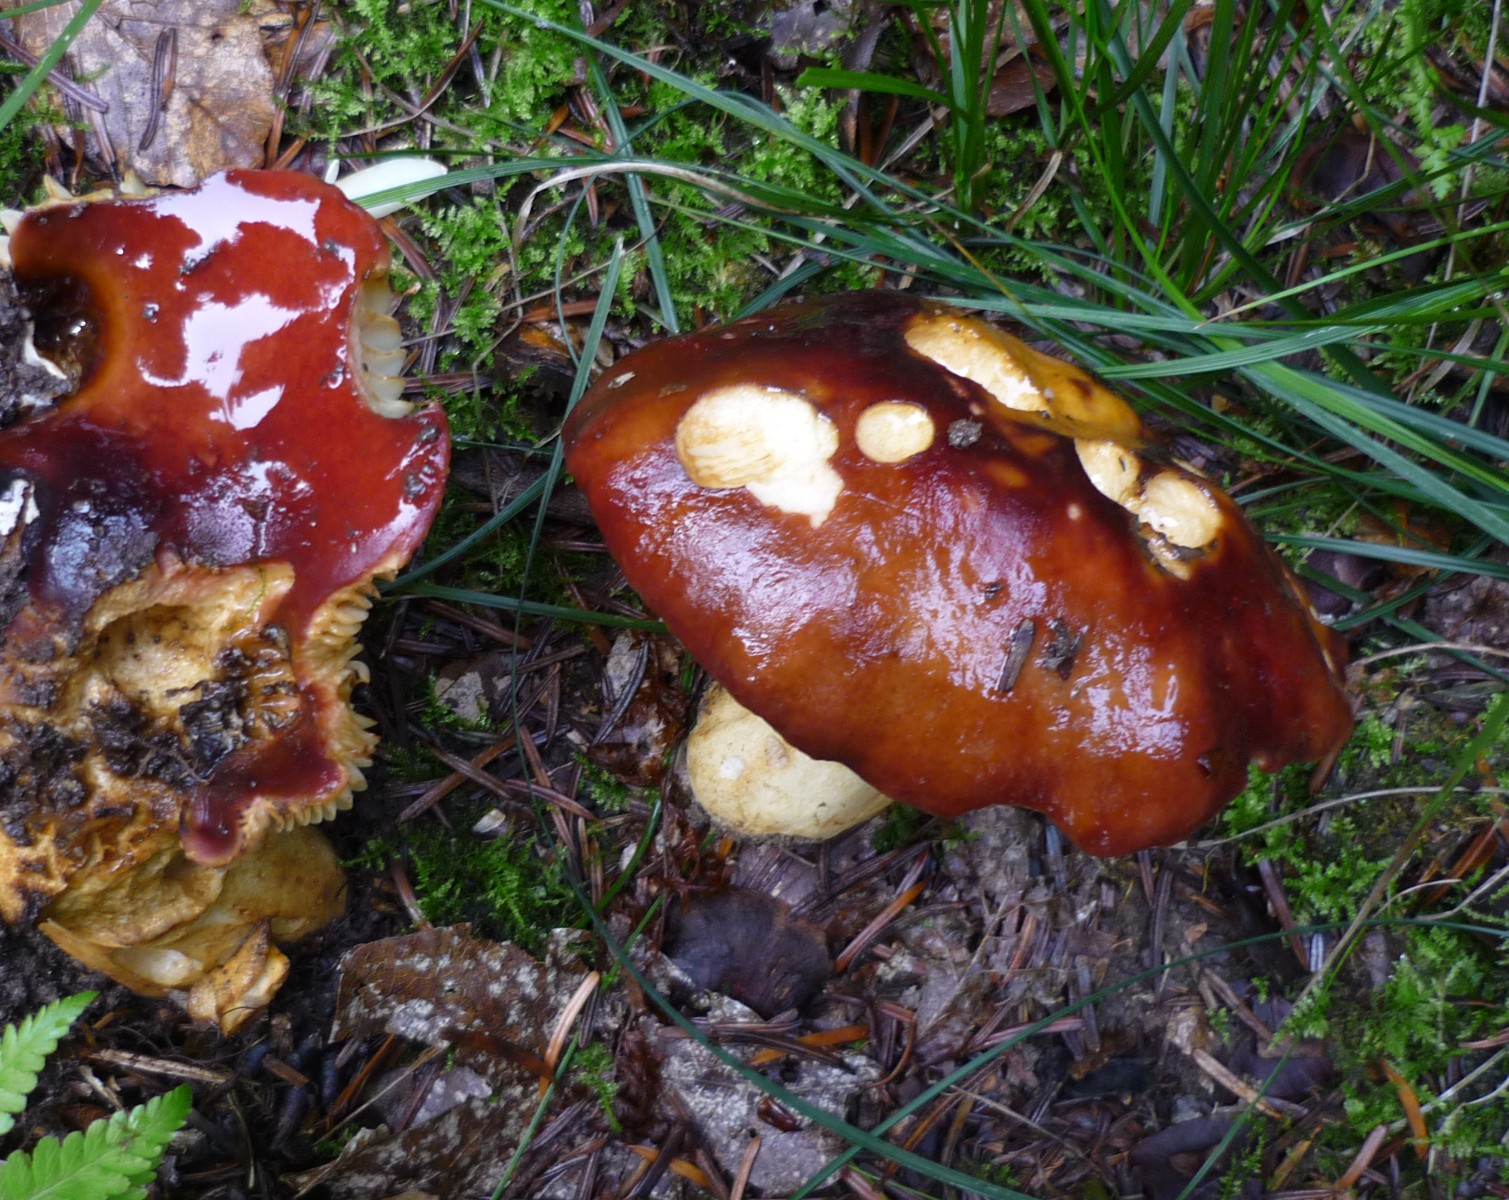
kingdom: Fungi
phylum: Basidiomycota
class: Agaricomycetes
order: Russulales
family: Russulaceae
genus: Russula
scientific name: Russula viscida
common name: knippe-skørhat
